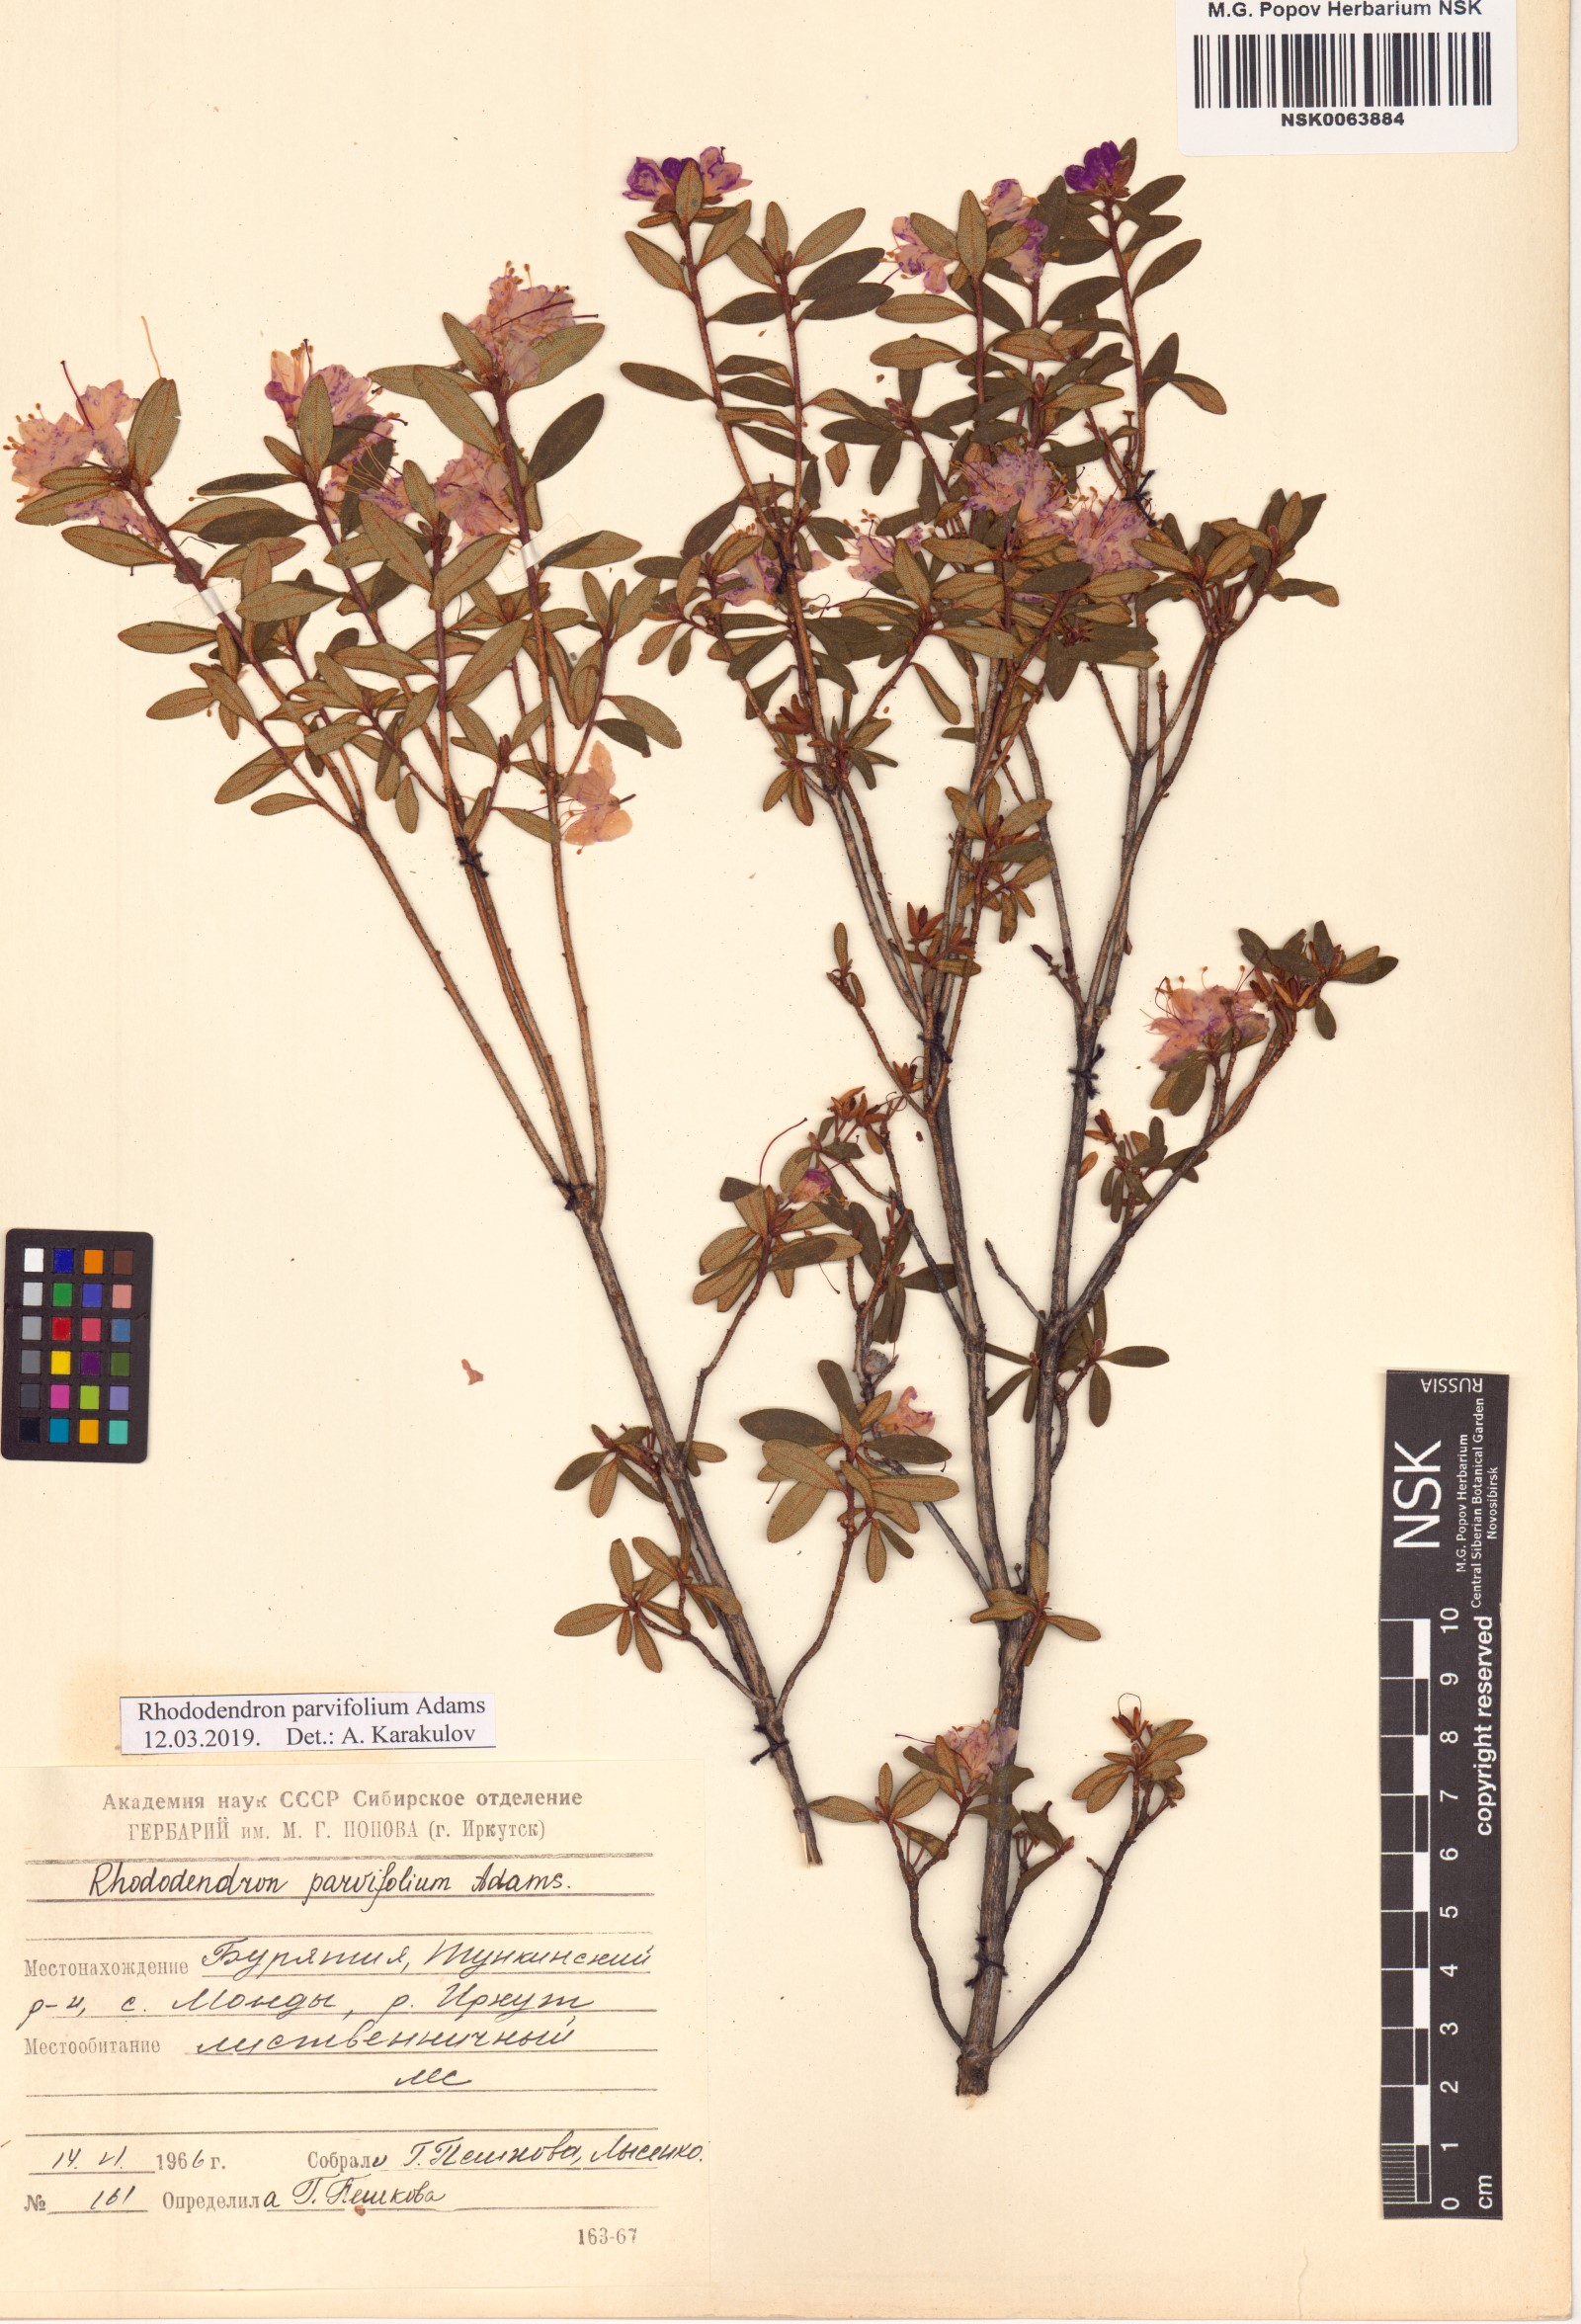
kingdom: Plantae
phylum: Tracheophyta
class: Magnoliopsida
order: Ericales
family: Ericaceae
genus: Rhododendron
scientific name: Rhododendron parvifolium
